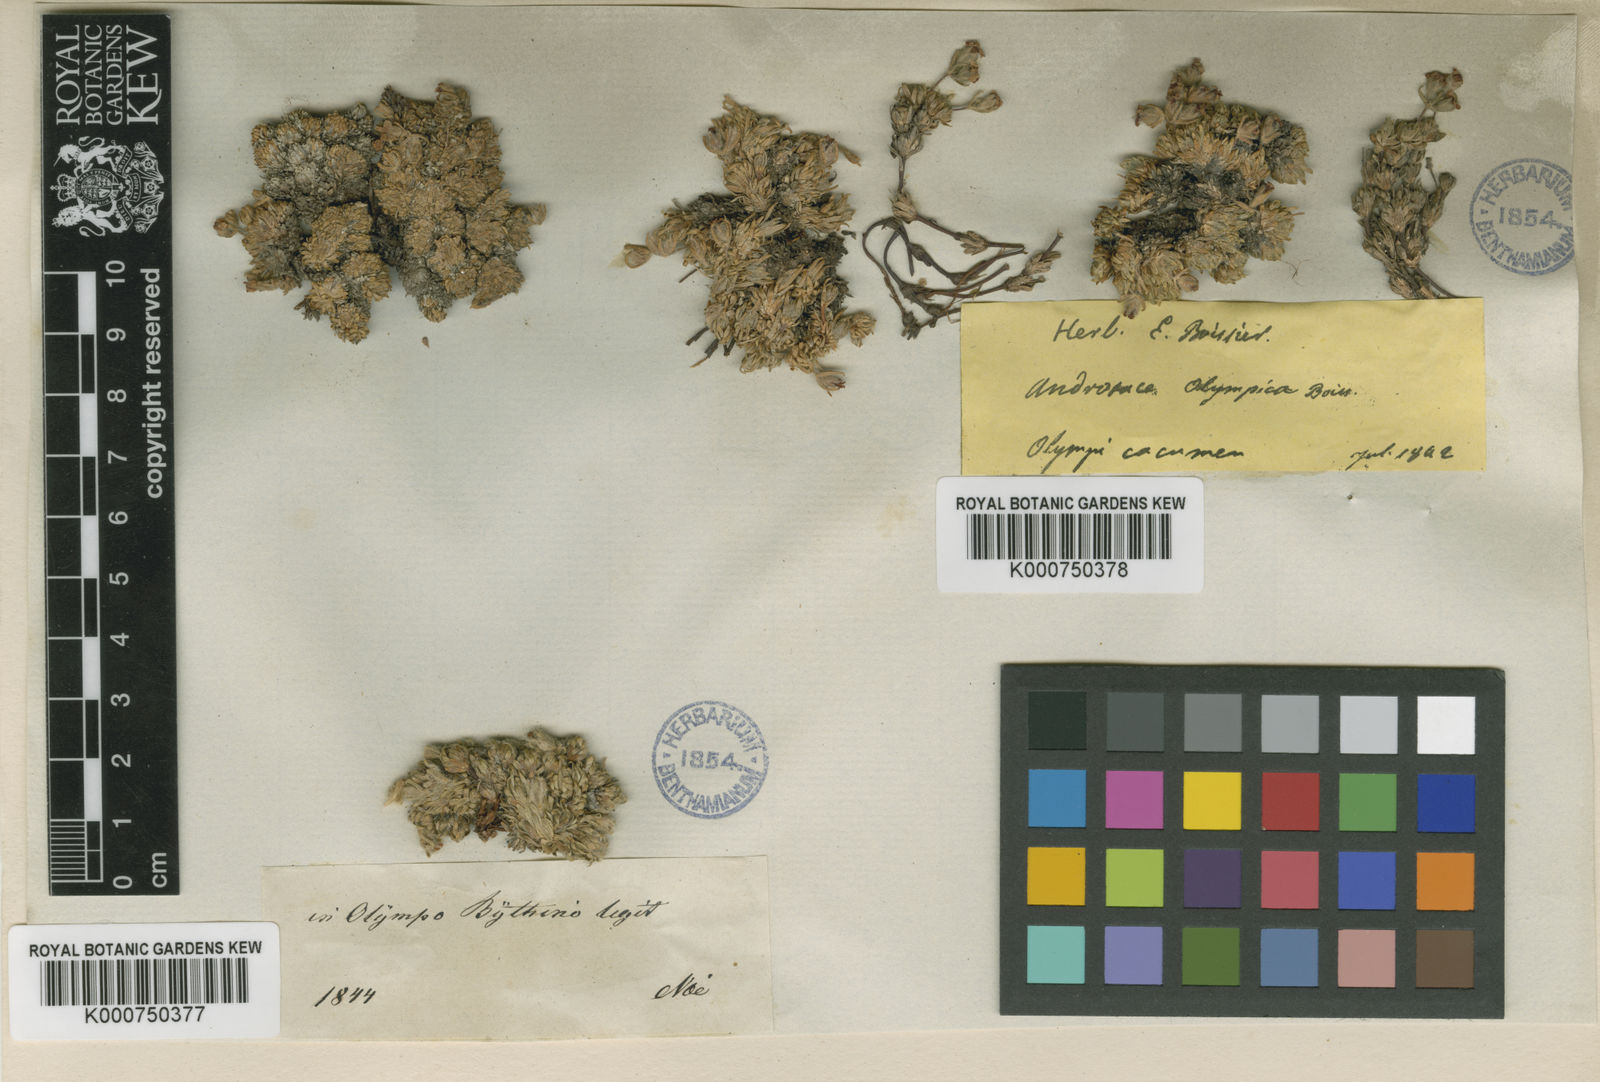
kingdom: Plantae
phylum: Tracheophyta
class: Magnoliopsida
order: Ericales
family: Primulaceae
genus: Androsace
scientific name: Androsace villosa
